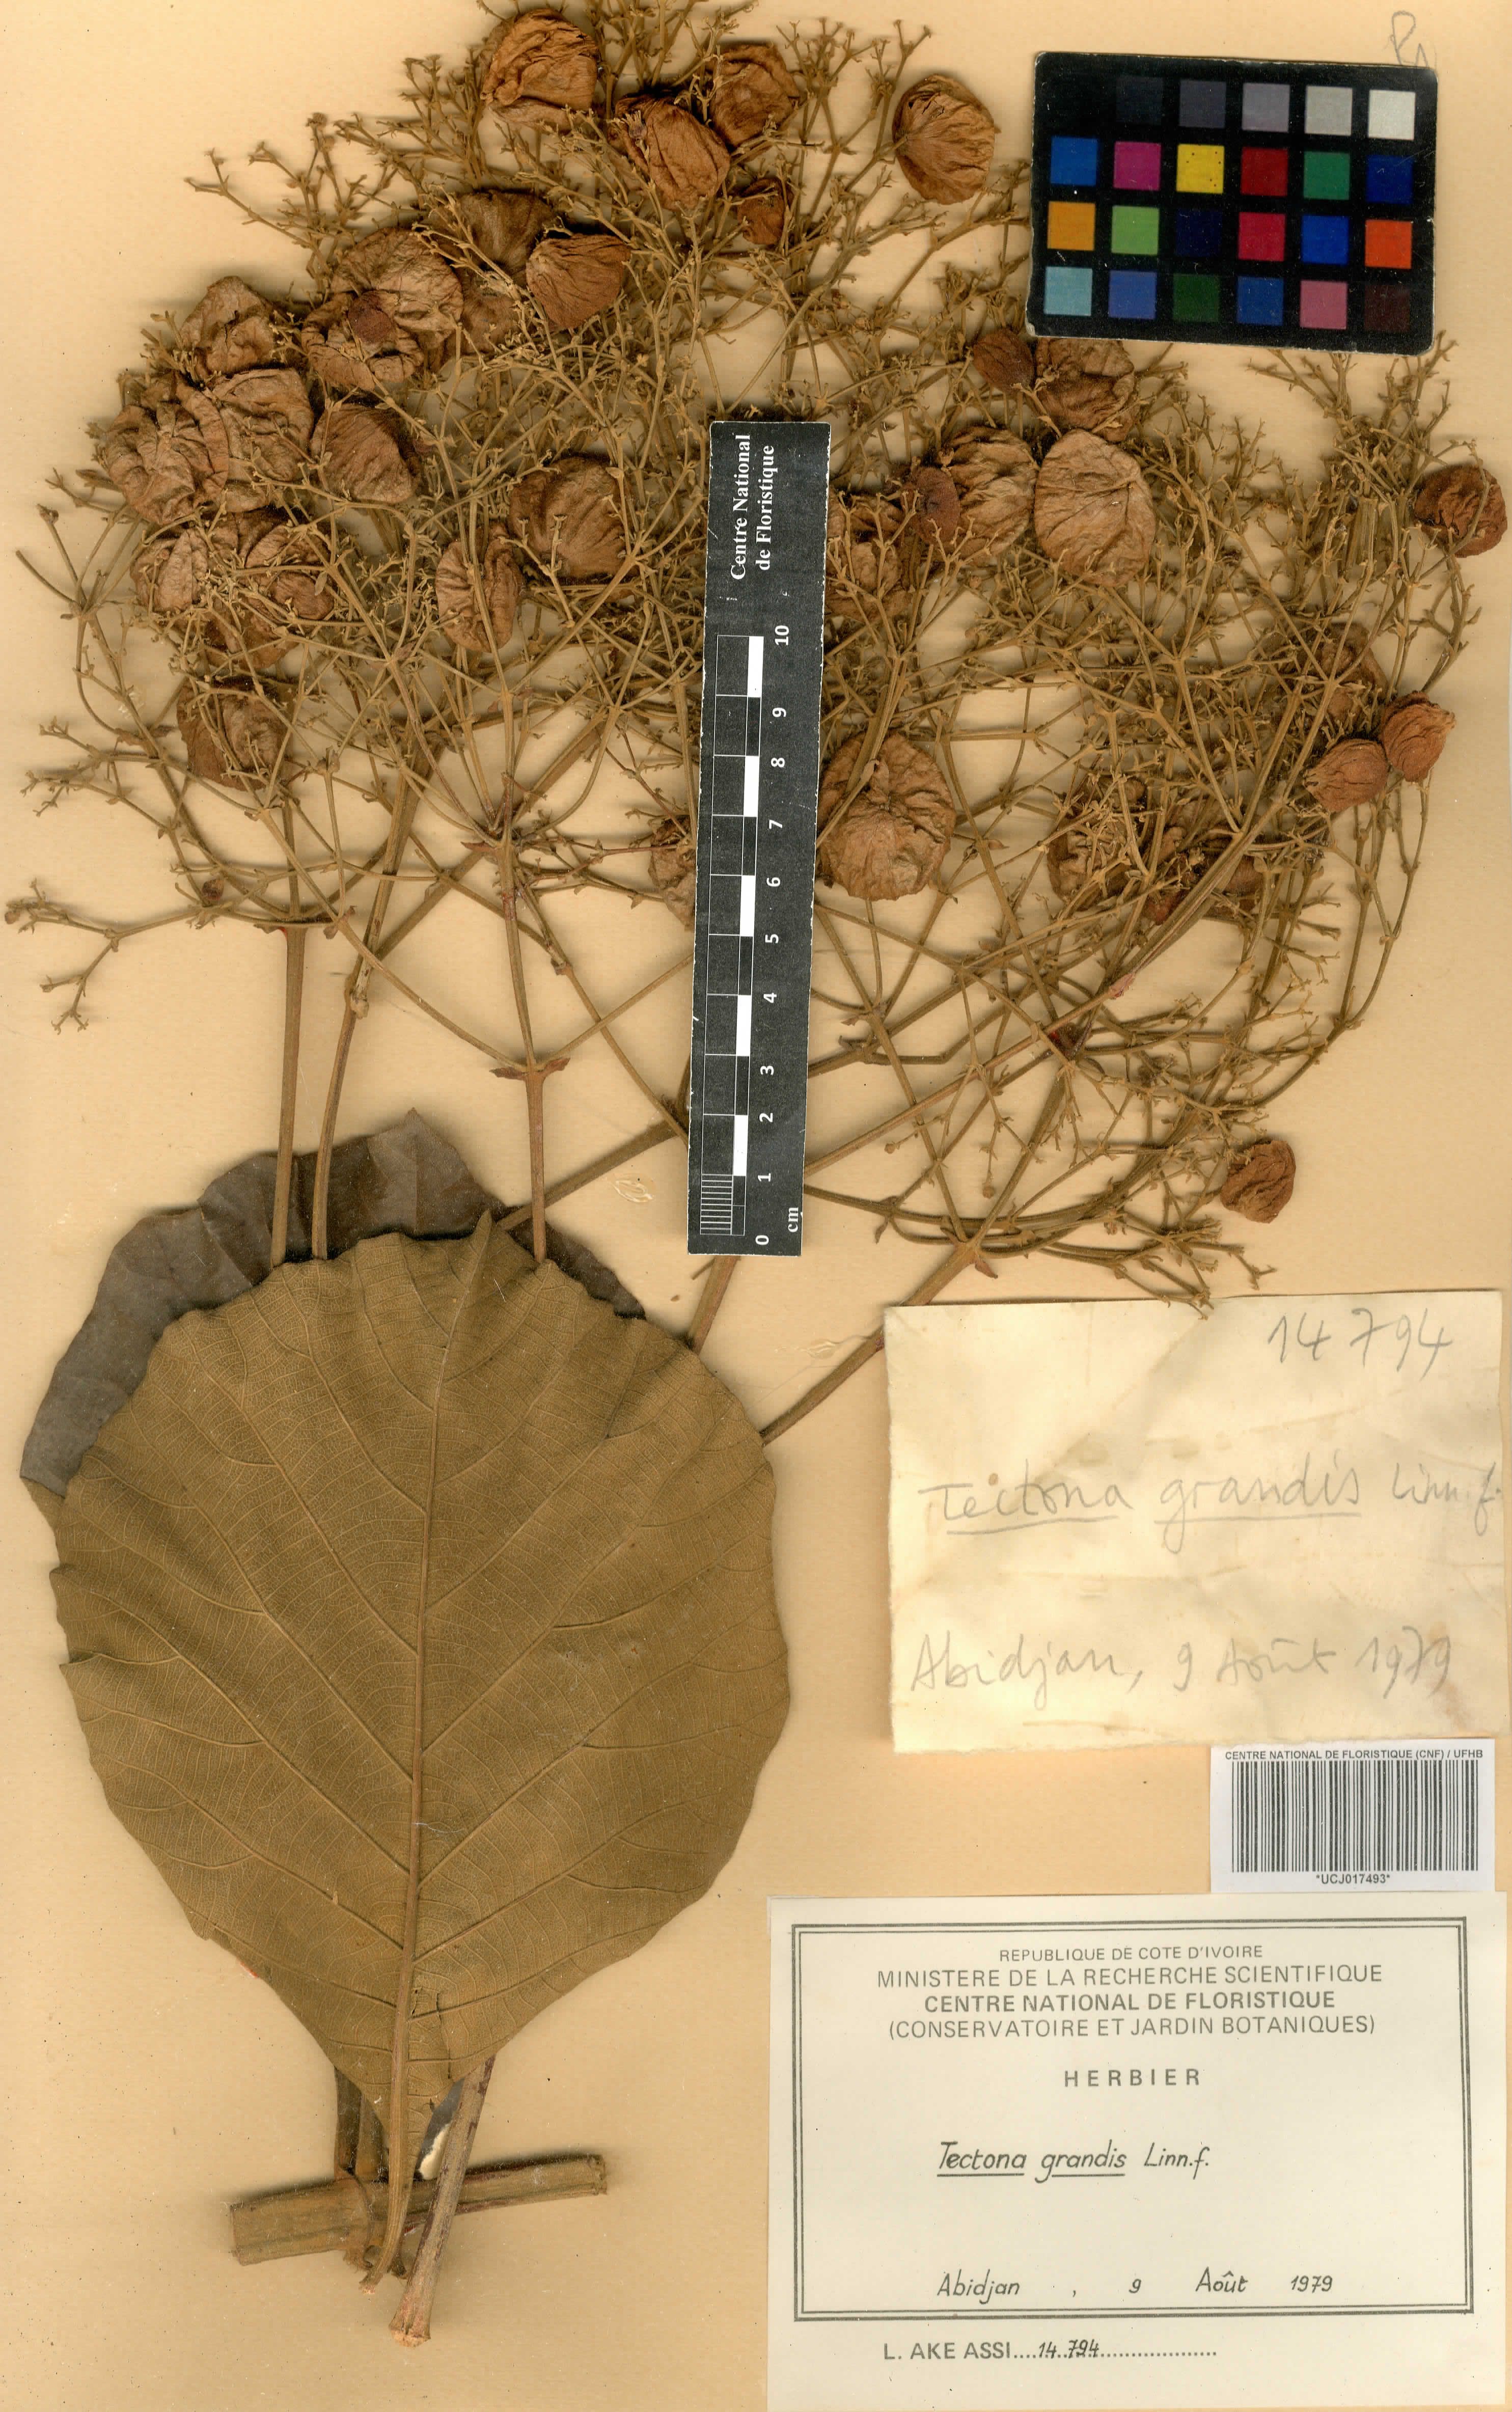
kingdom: Plantae
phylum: Tracheophyta
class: Magnoliopsida
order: Lamiales
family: Lamiaceae
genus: Tectona
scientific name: Tectona grandis
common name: Teak
